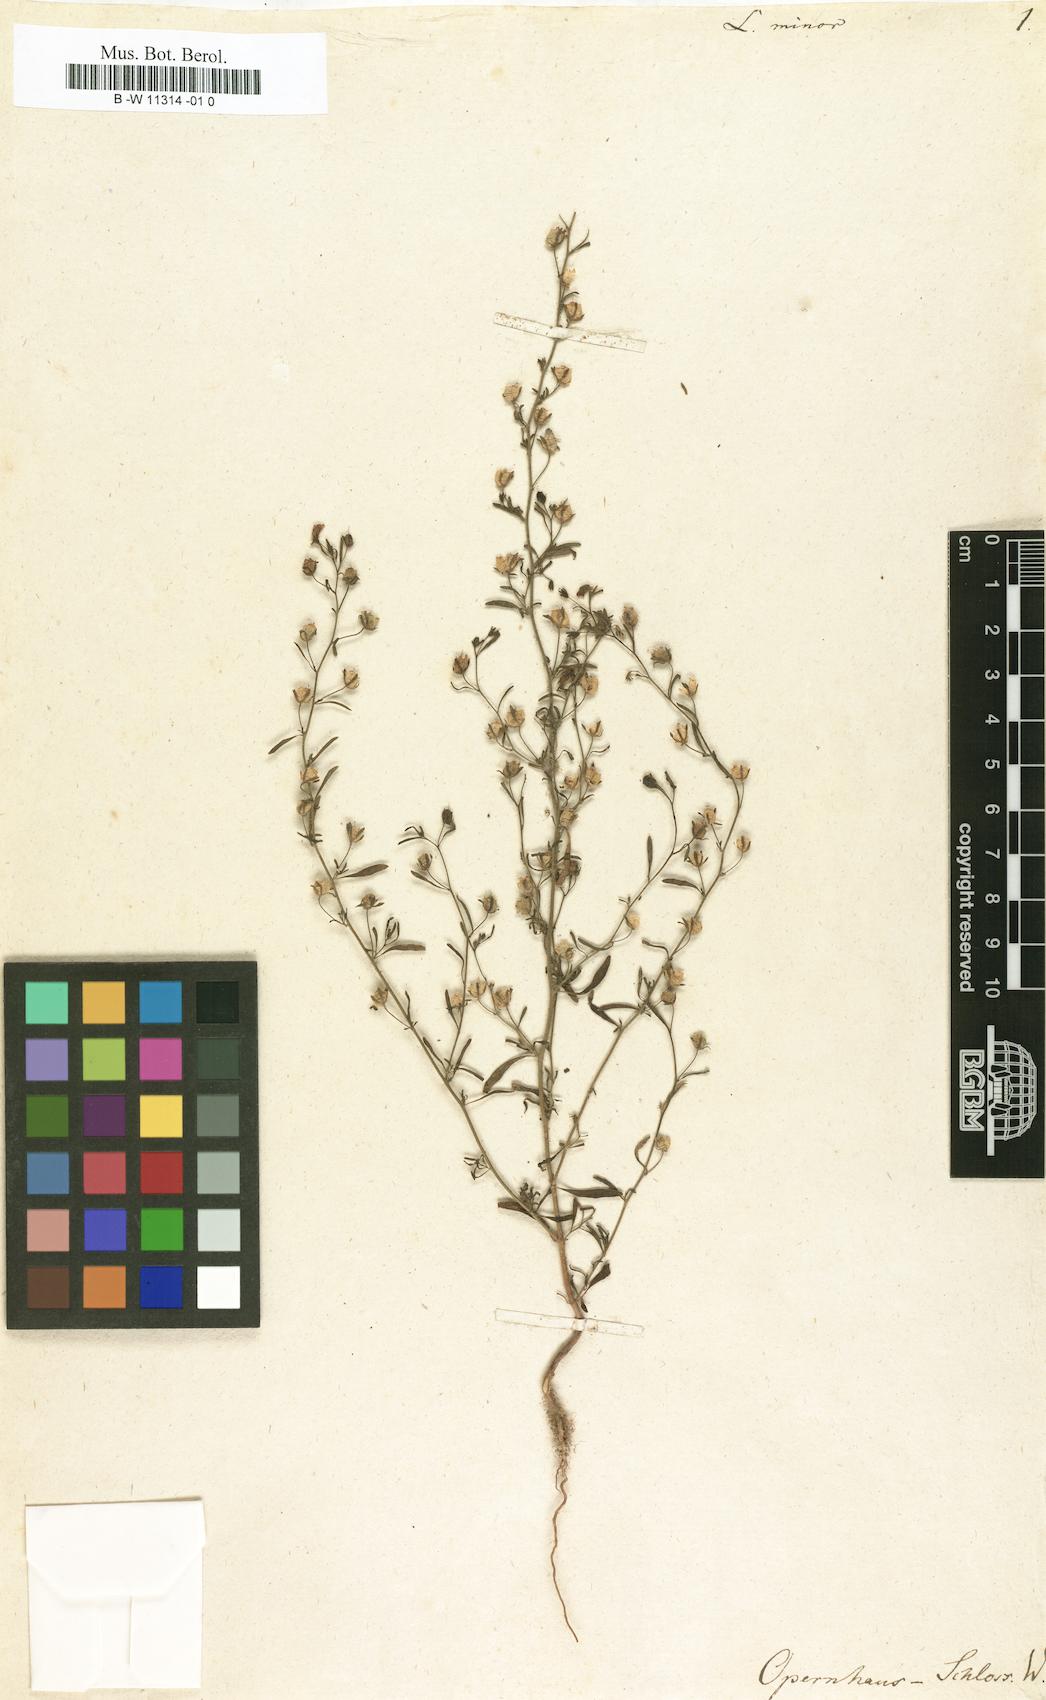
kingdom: Plantae
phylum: Tracheophyta
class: Magnoliopsida
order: Lamiales
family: Plantaginaceae
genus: Chaenorhinum
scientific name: Chaenorhinum minus
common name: Dwarf snapdragon
